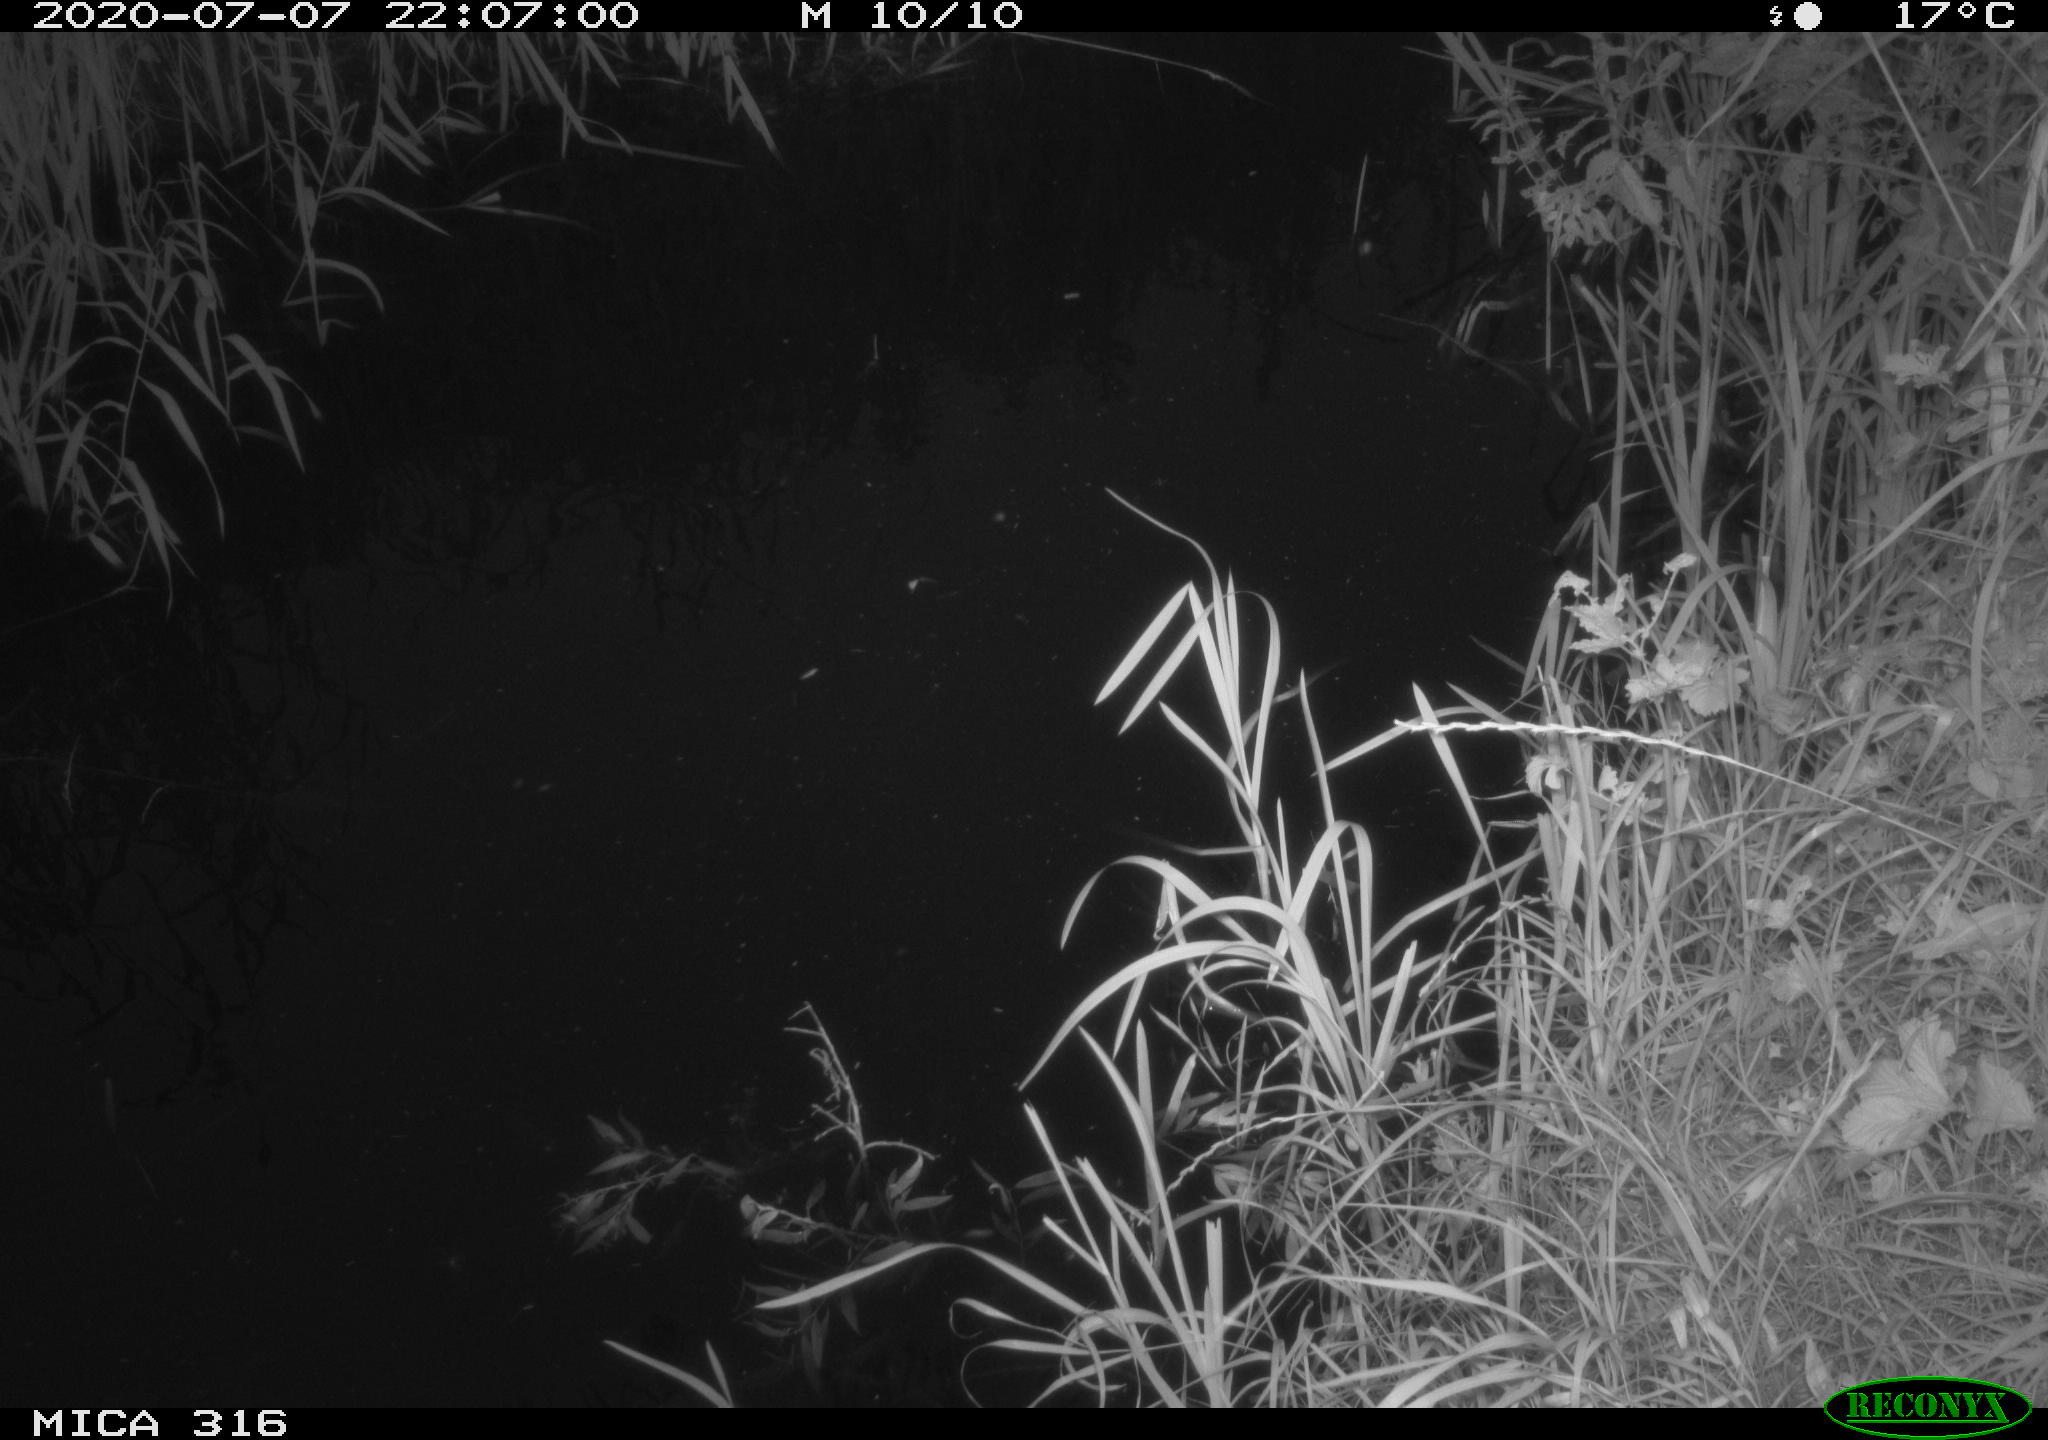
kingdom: Animalia
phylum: Chordata
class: Aves
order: Anseriformes
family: Anatidae
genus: Anas
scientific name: Anas platyrhynchos
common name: Mallard
